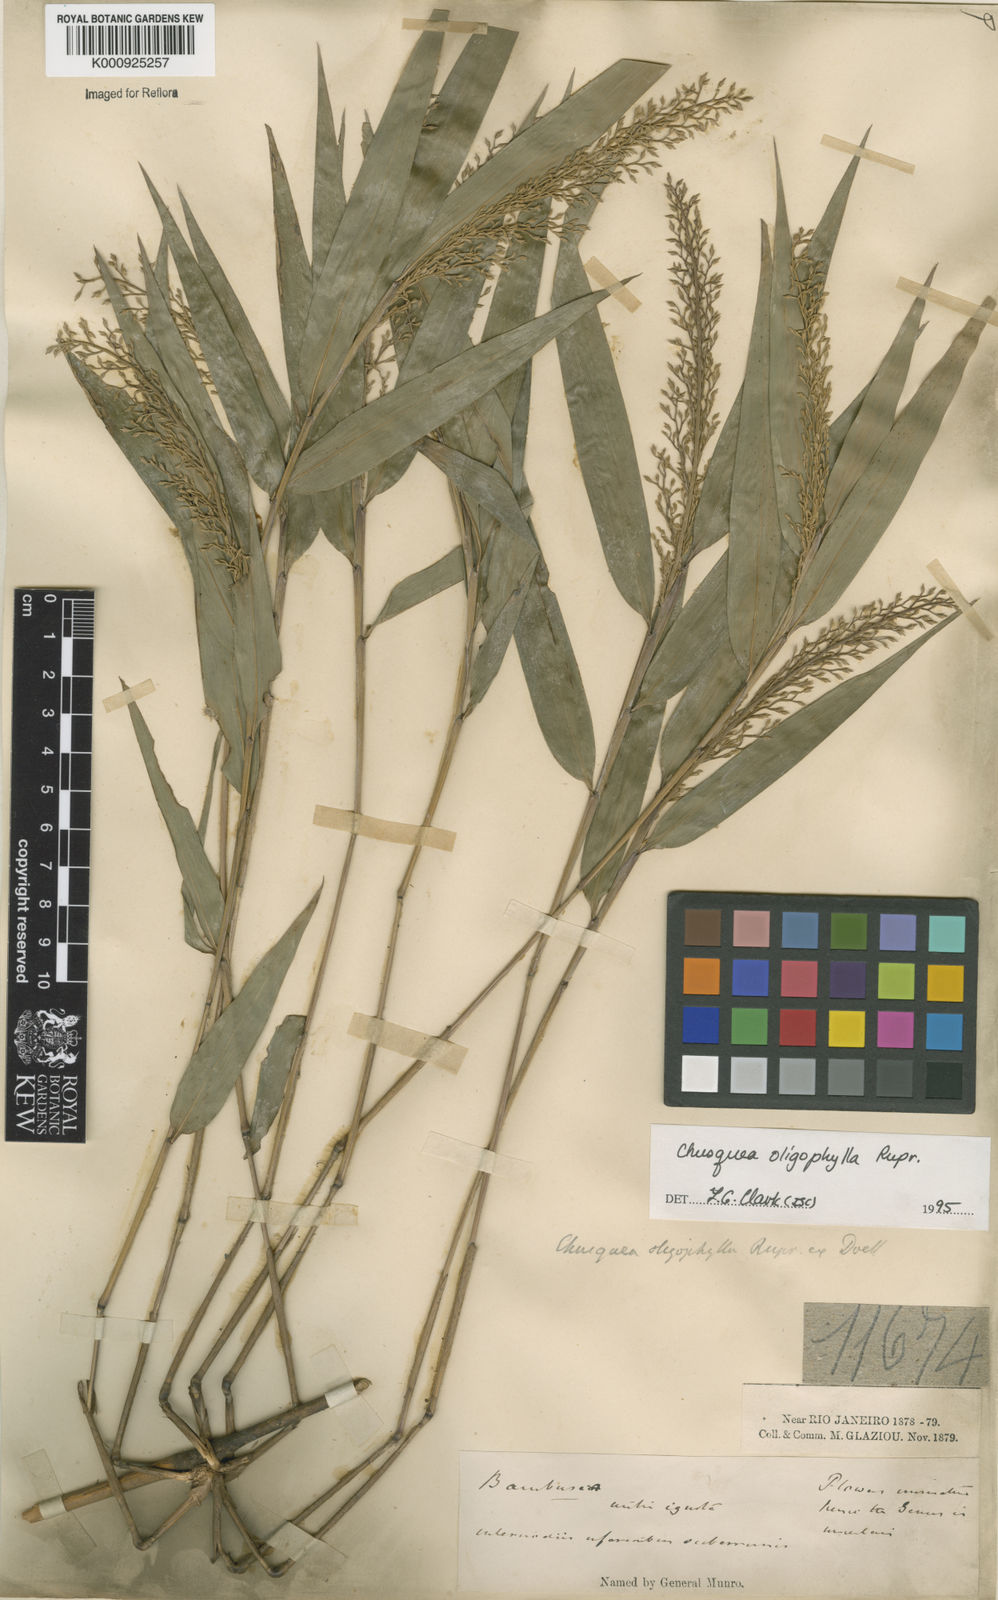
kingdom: Plantae
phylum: Tracheophyta
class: Liliopsida
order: Poales
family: Poaceae
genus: Chusquea
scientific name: Chusquea oligophylla
